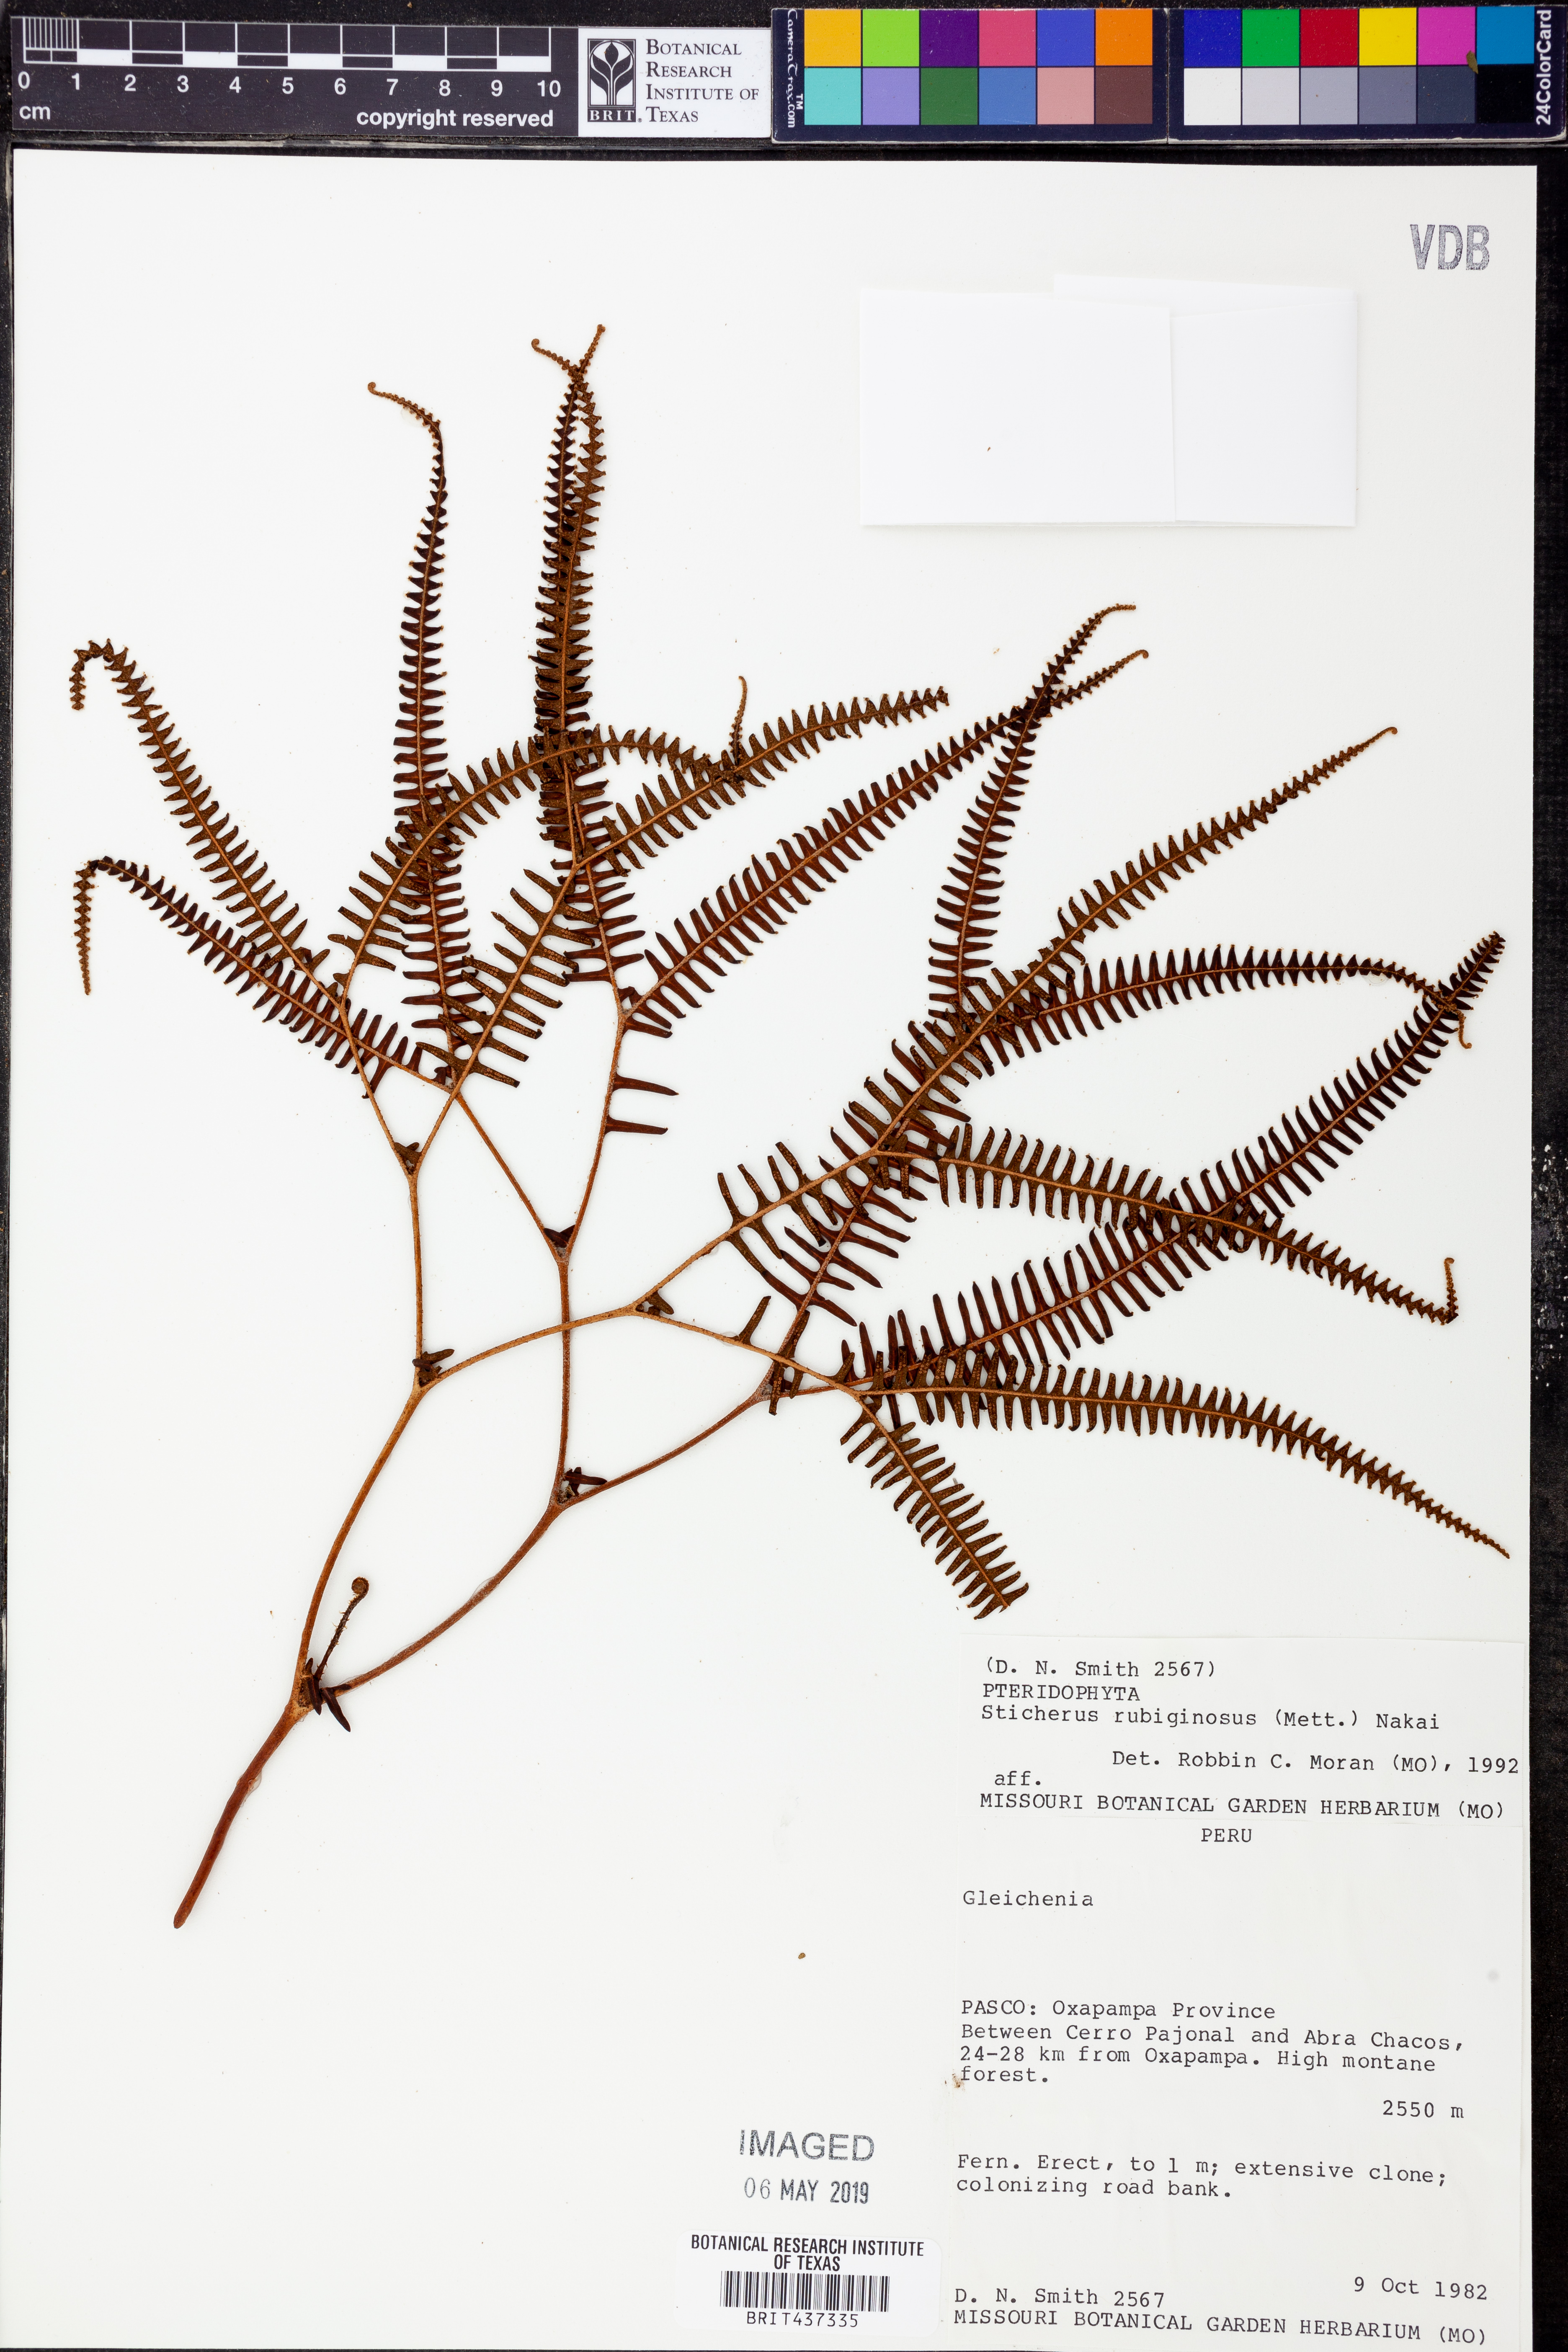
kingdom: Plantae
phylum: Tracheophyta
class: Polypodiopsida
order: Gleicheniales
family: Gleicheniaceae
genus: Sticherus
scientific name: Sticherus rubiginosus
